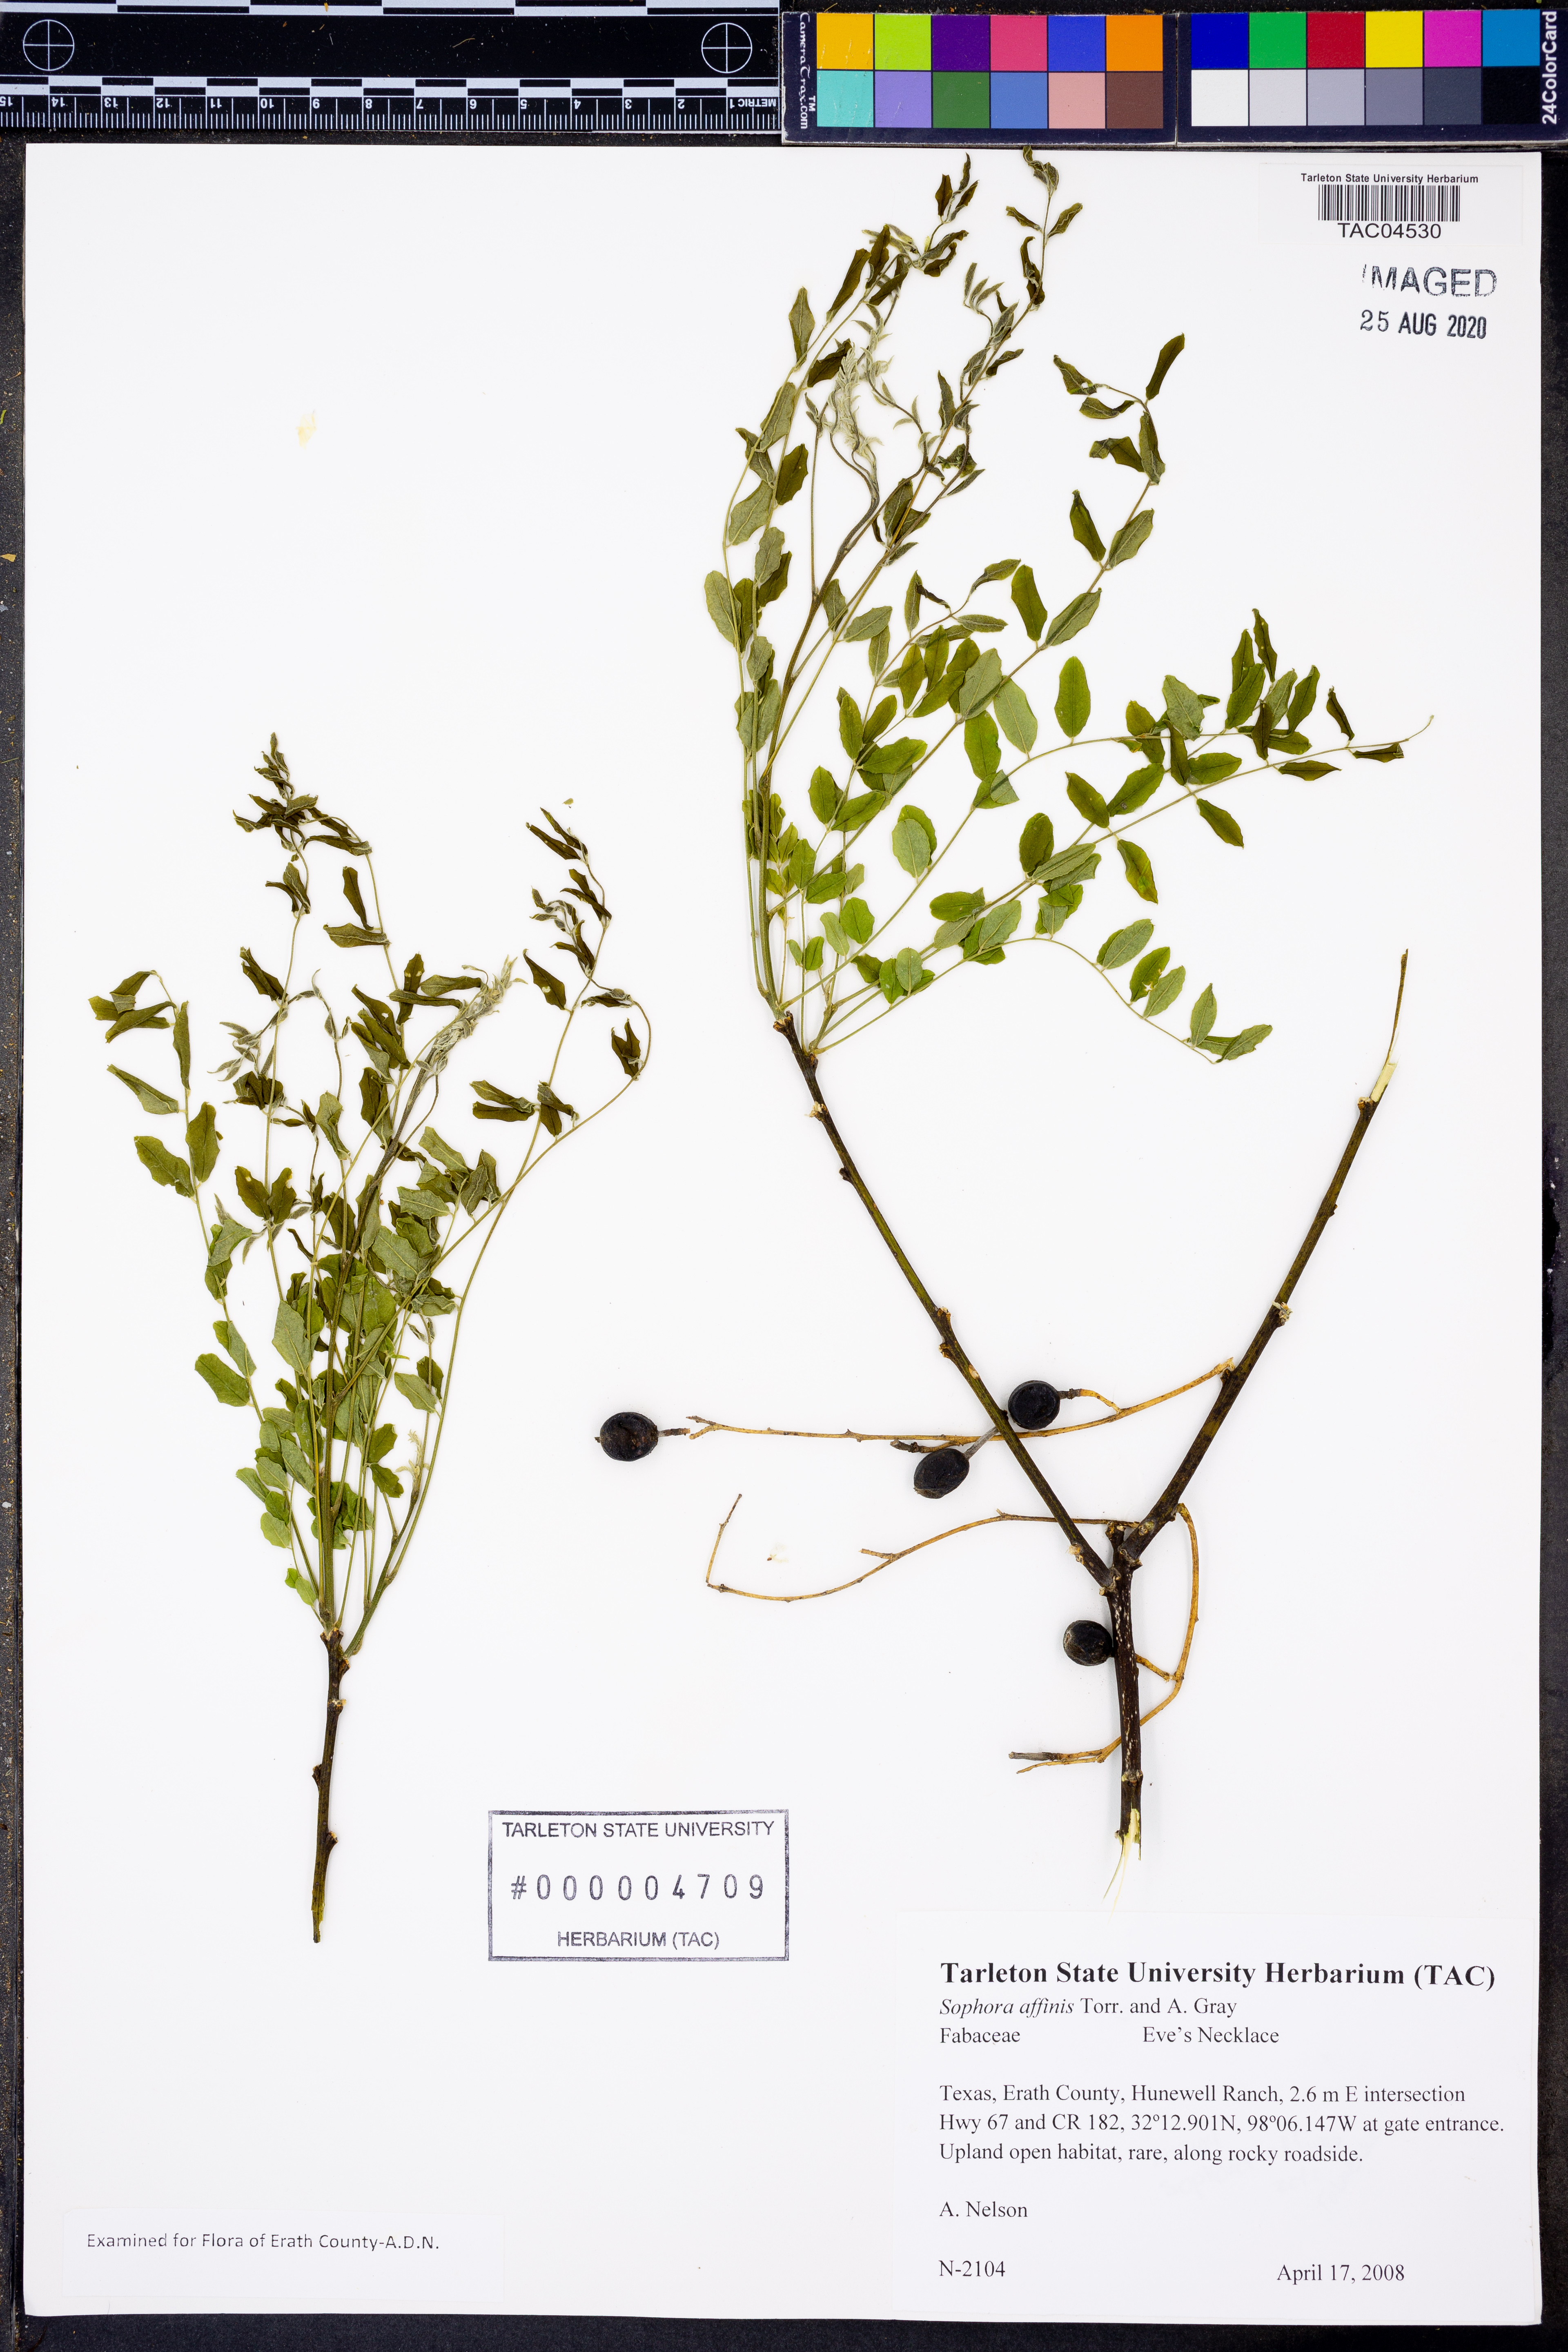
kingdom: Plantae
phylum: Tracheophyta
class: Magnoliopsida
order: Fabales
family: Fabaceae
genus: Styphnolobium
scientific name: Styphnolobium affine
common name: Texas sophora
